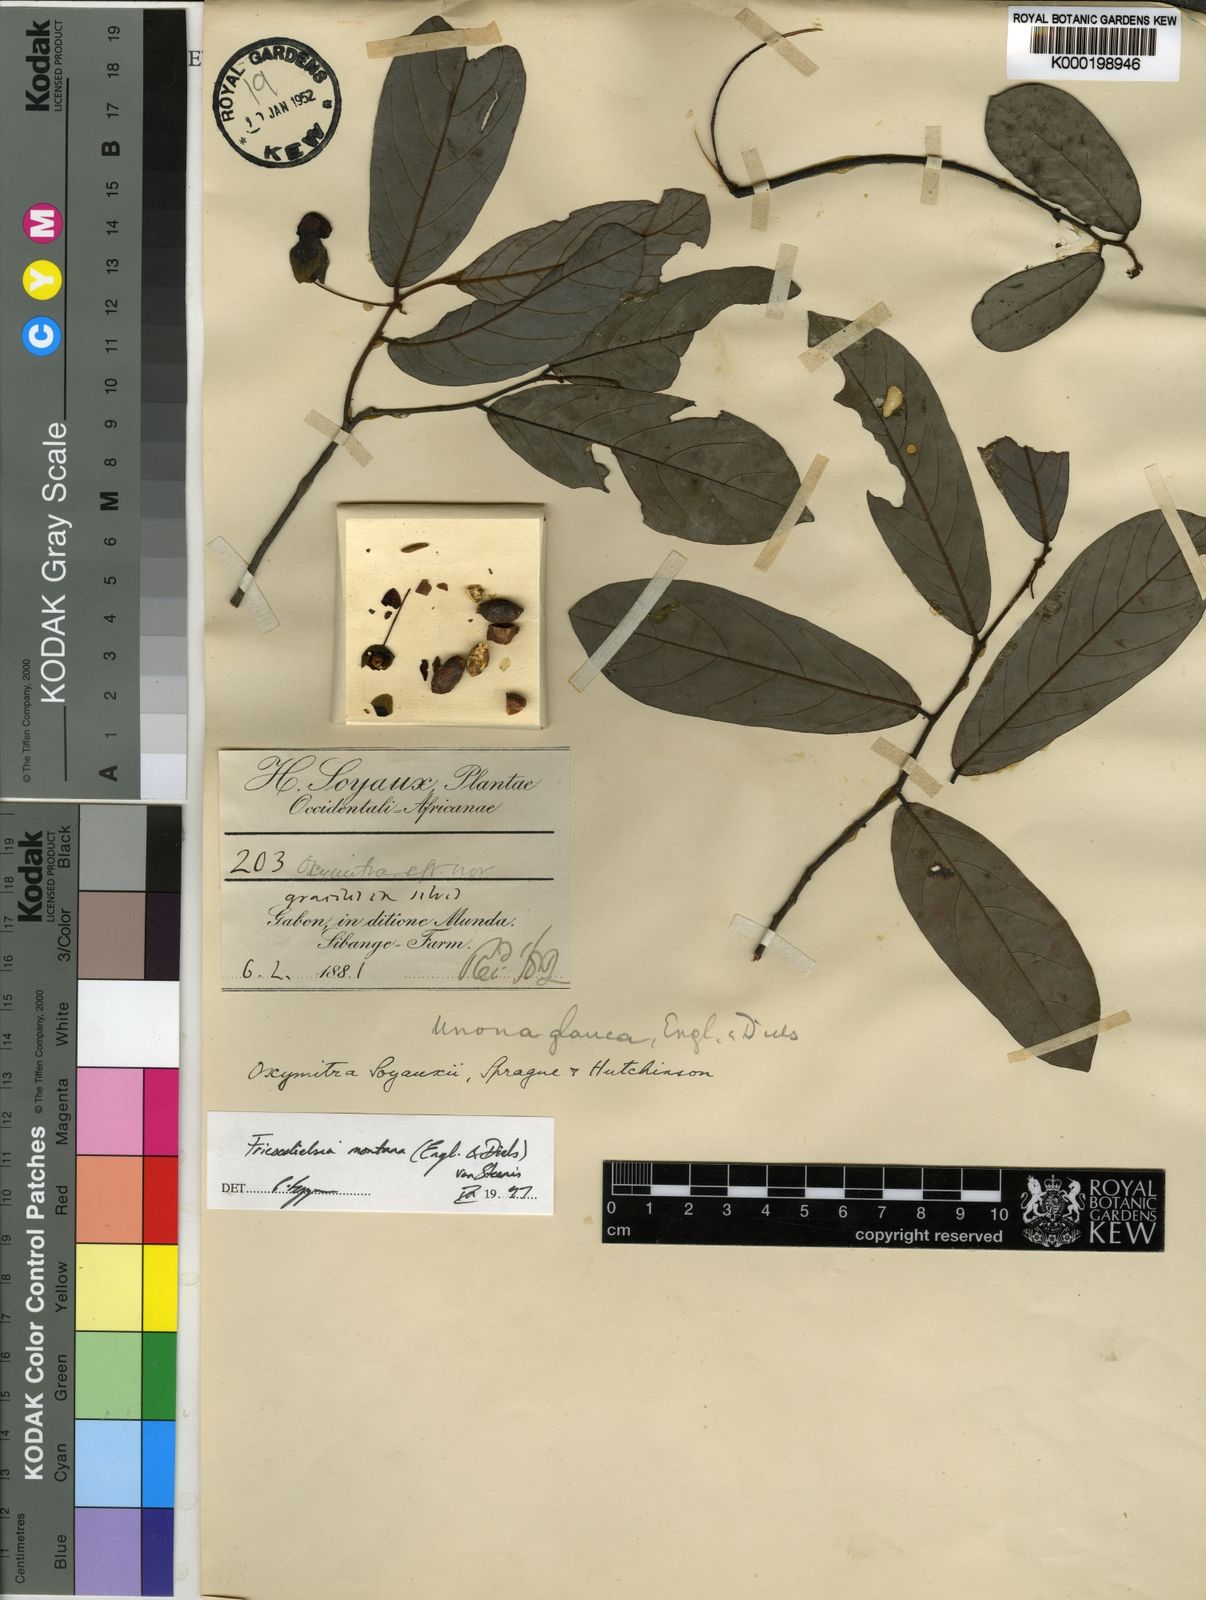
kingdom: Plantae
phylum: Tracheophyta
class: Magnoliopsida
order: Magnoliales
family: Annonaceae
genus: Friesodielsia
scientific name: Friesodielsia montana
